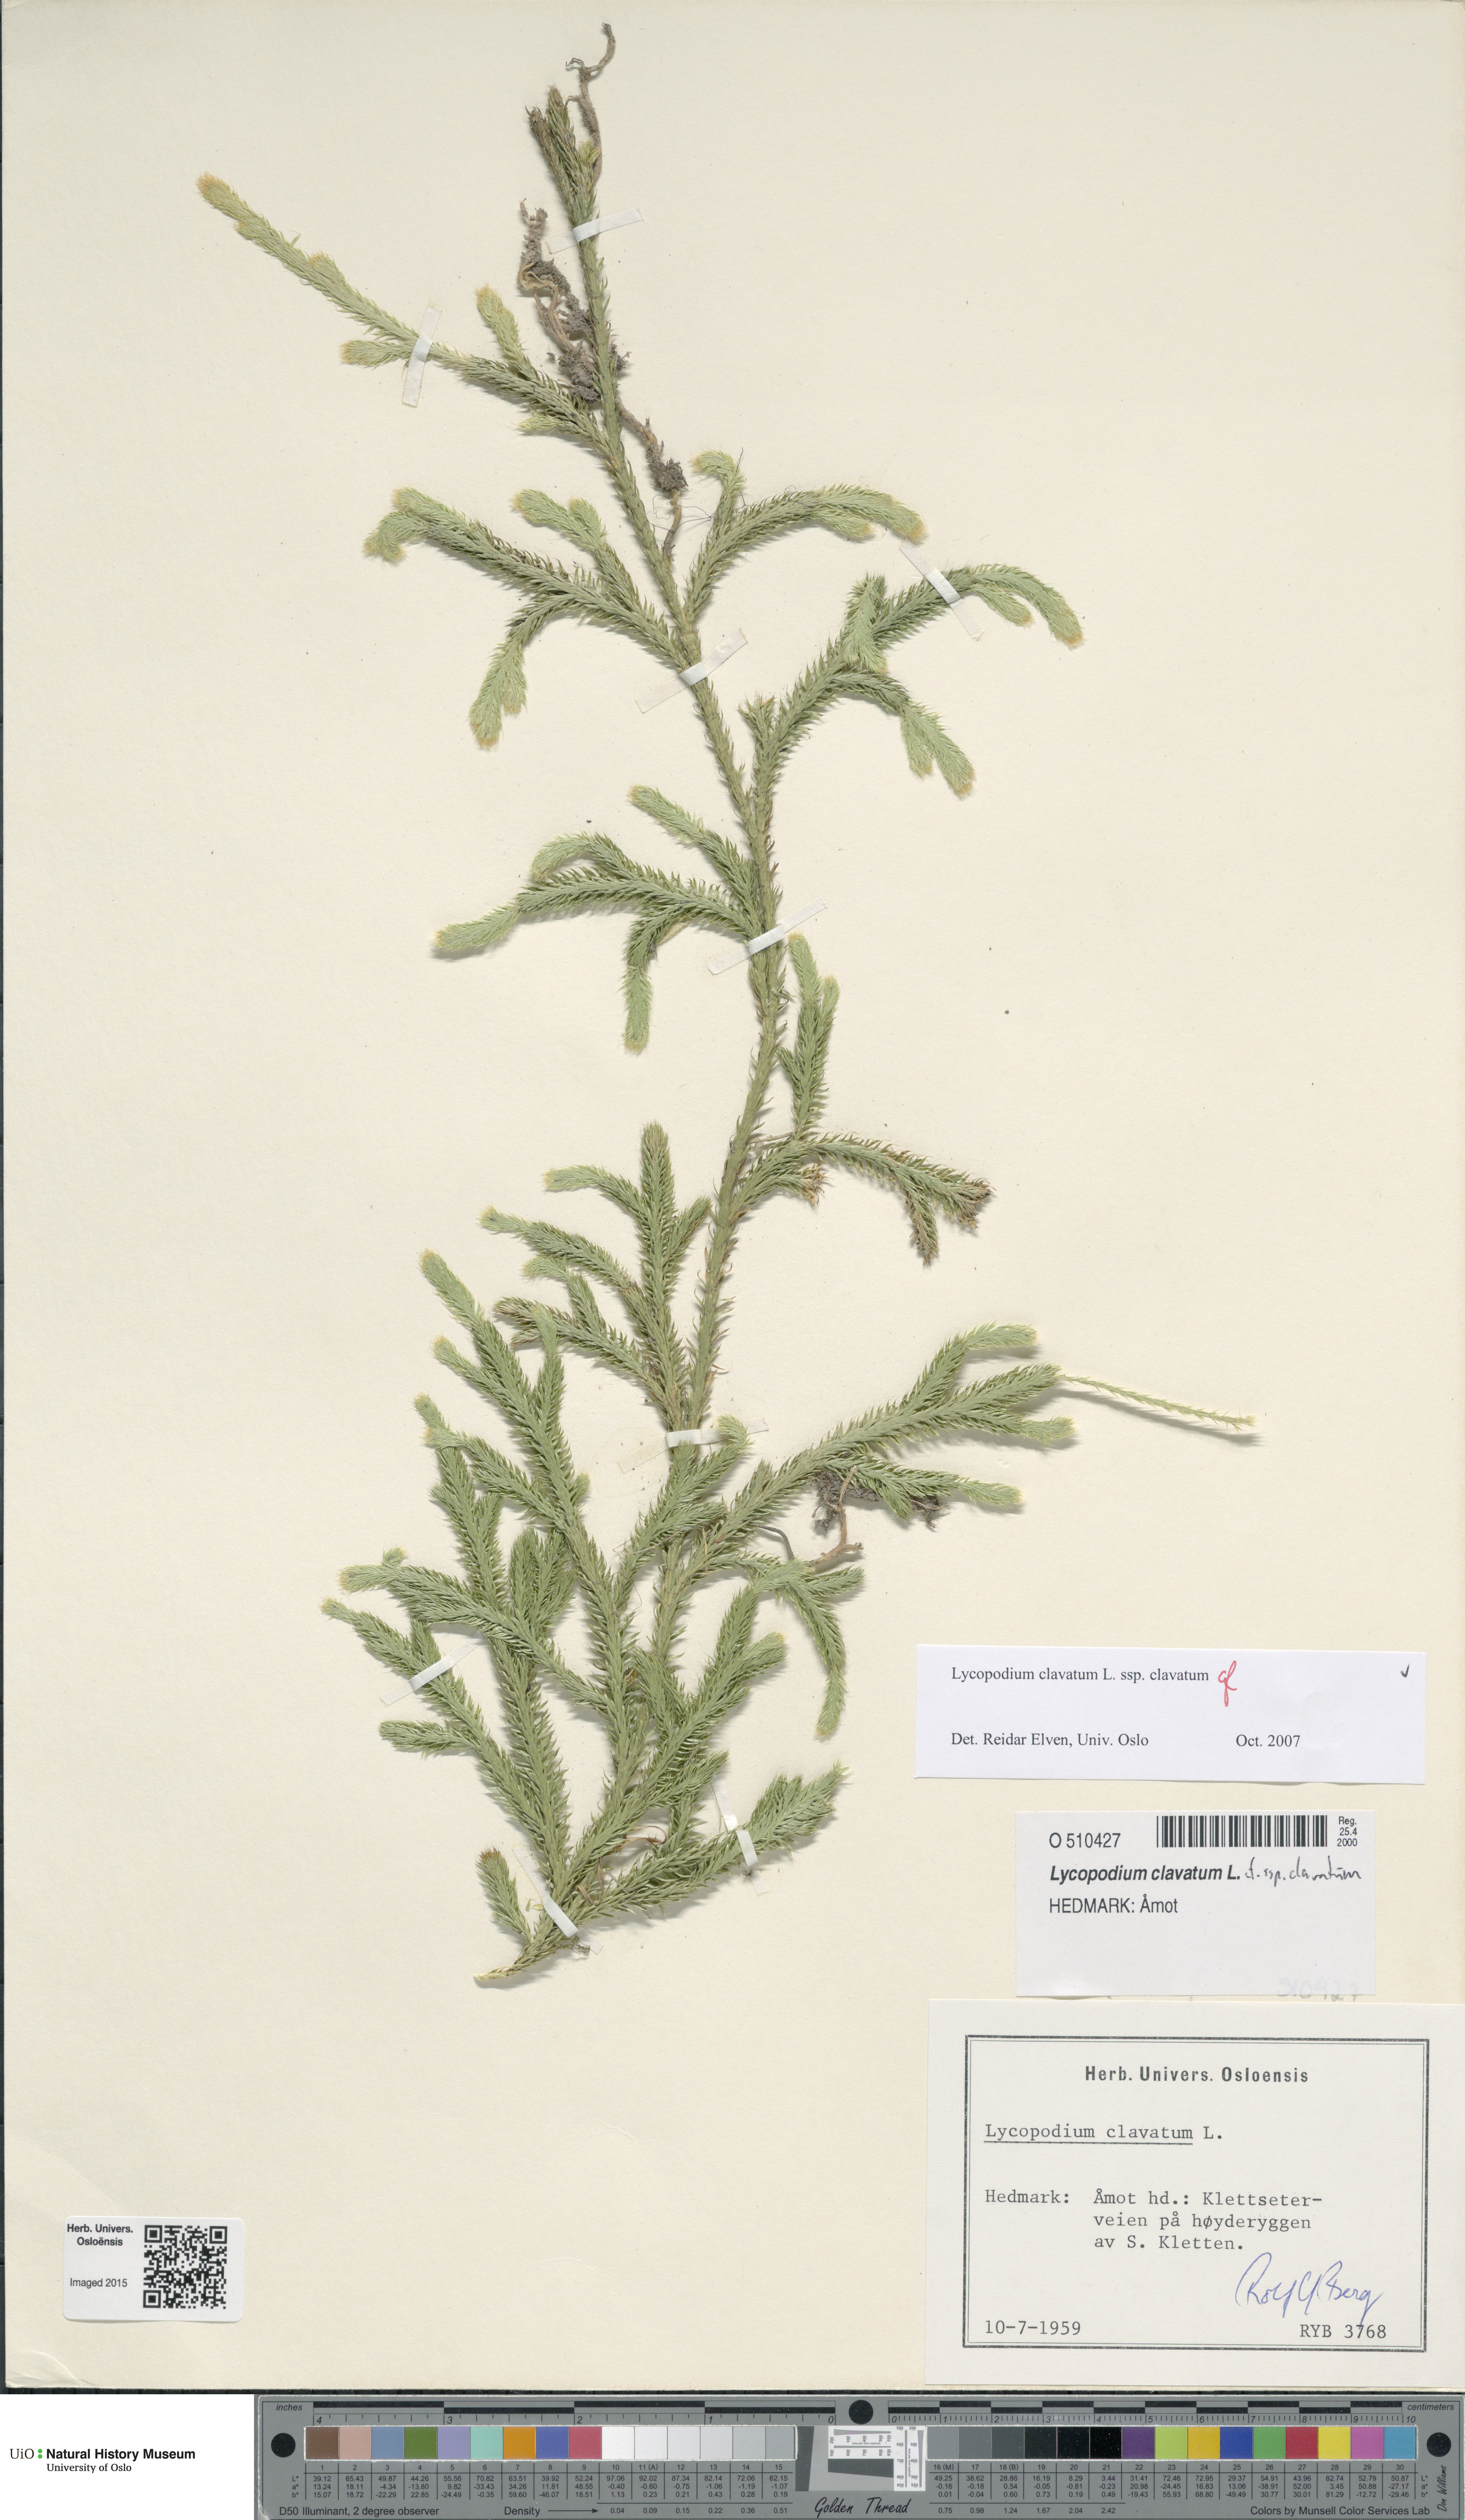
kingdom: Plantae
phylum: Tracheophyta
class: Lycopodiopsida
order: Lycopodiales
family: Lycopodiaceae
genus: Lycopodium
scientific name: Lycopodium clavatum
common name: Stag's-horn clubmoss
